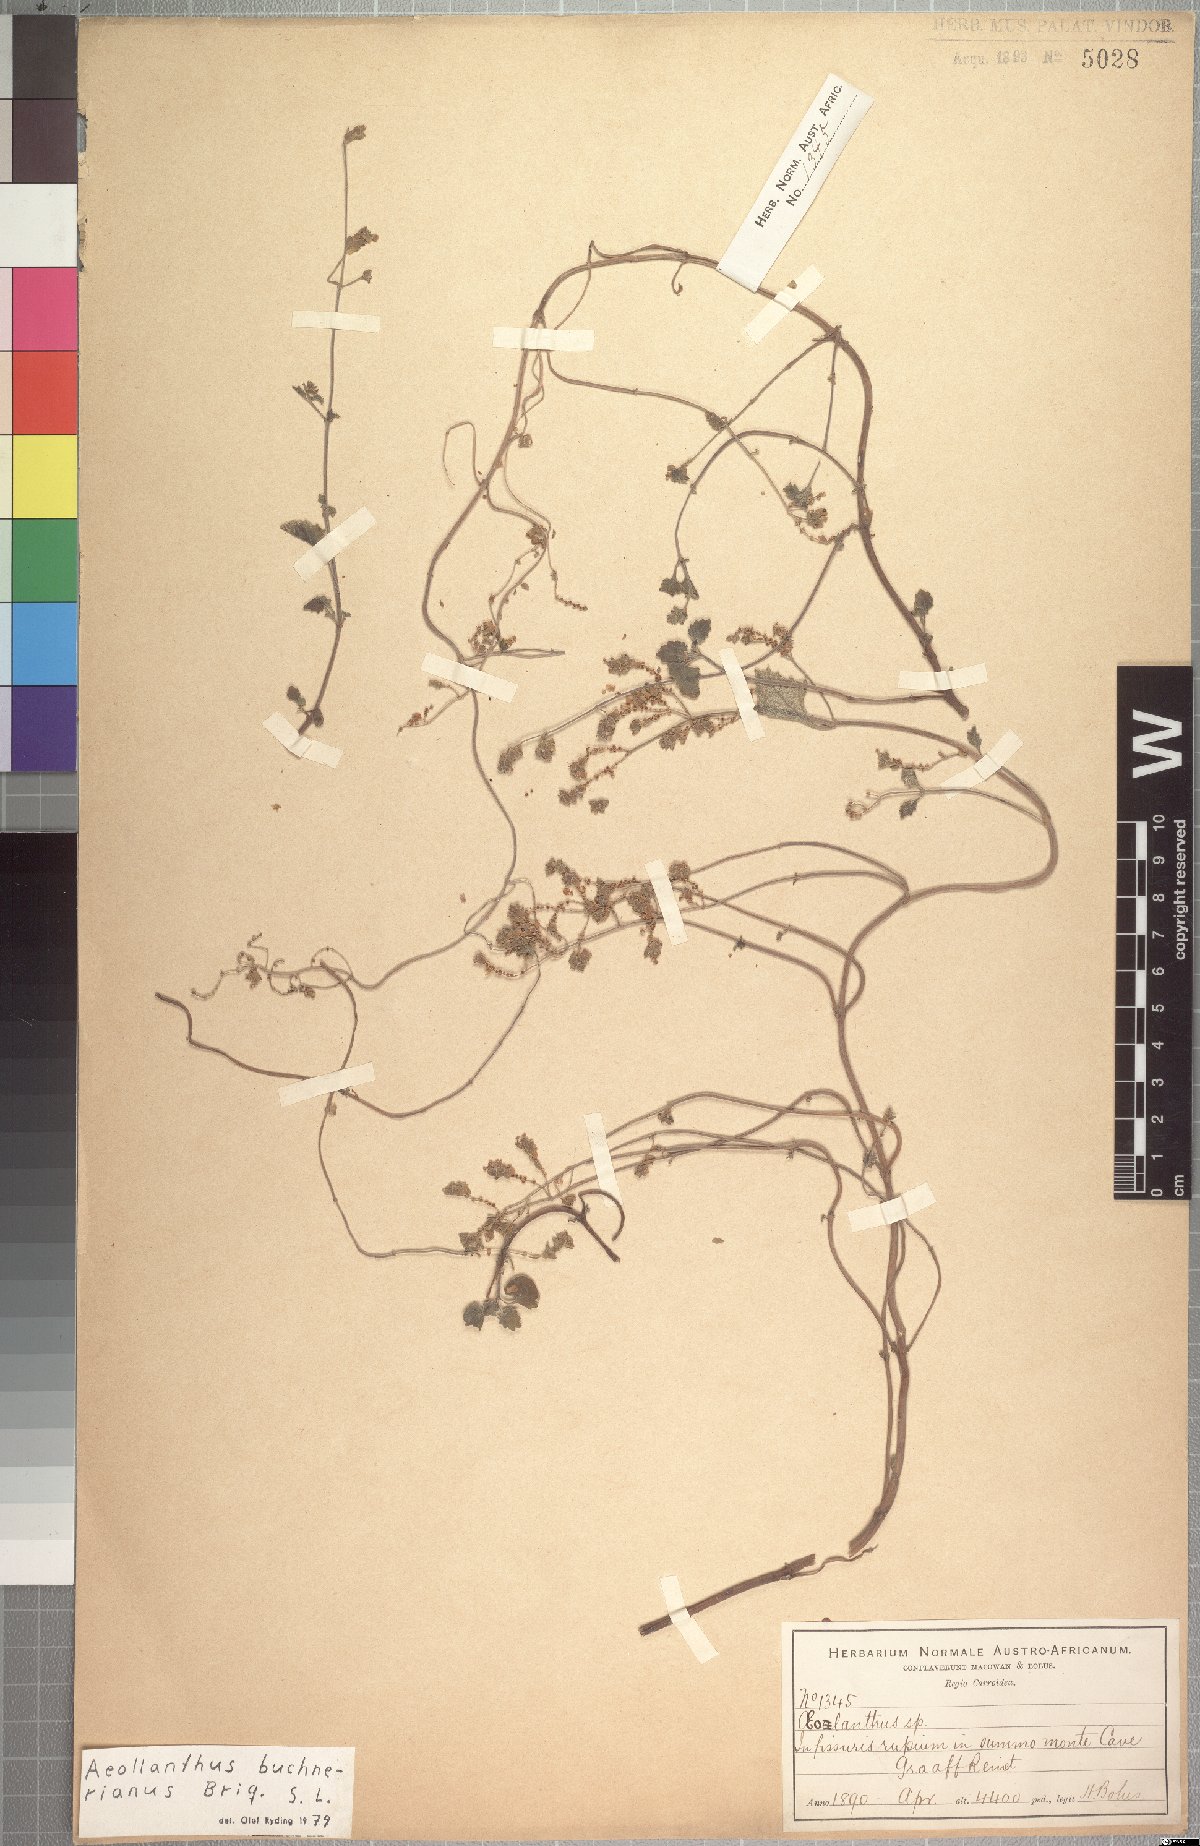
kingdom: Plantae
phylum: Tracheophyta
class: Magnoliopsida
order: Lamiales
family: Lamiaceae
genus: Aeollanthus
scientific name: Aeollanthus buchnerianus
